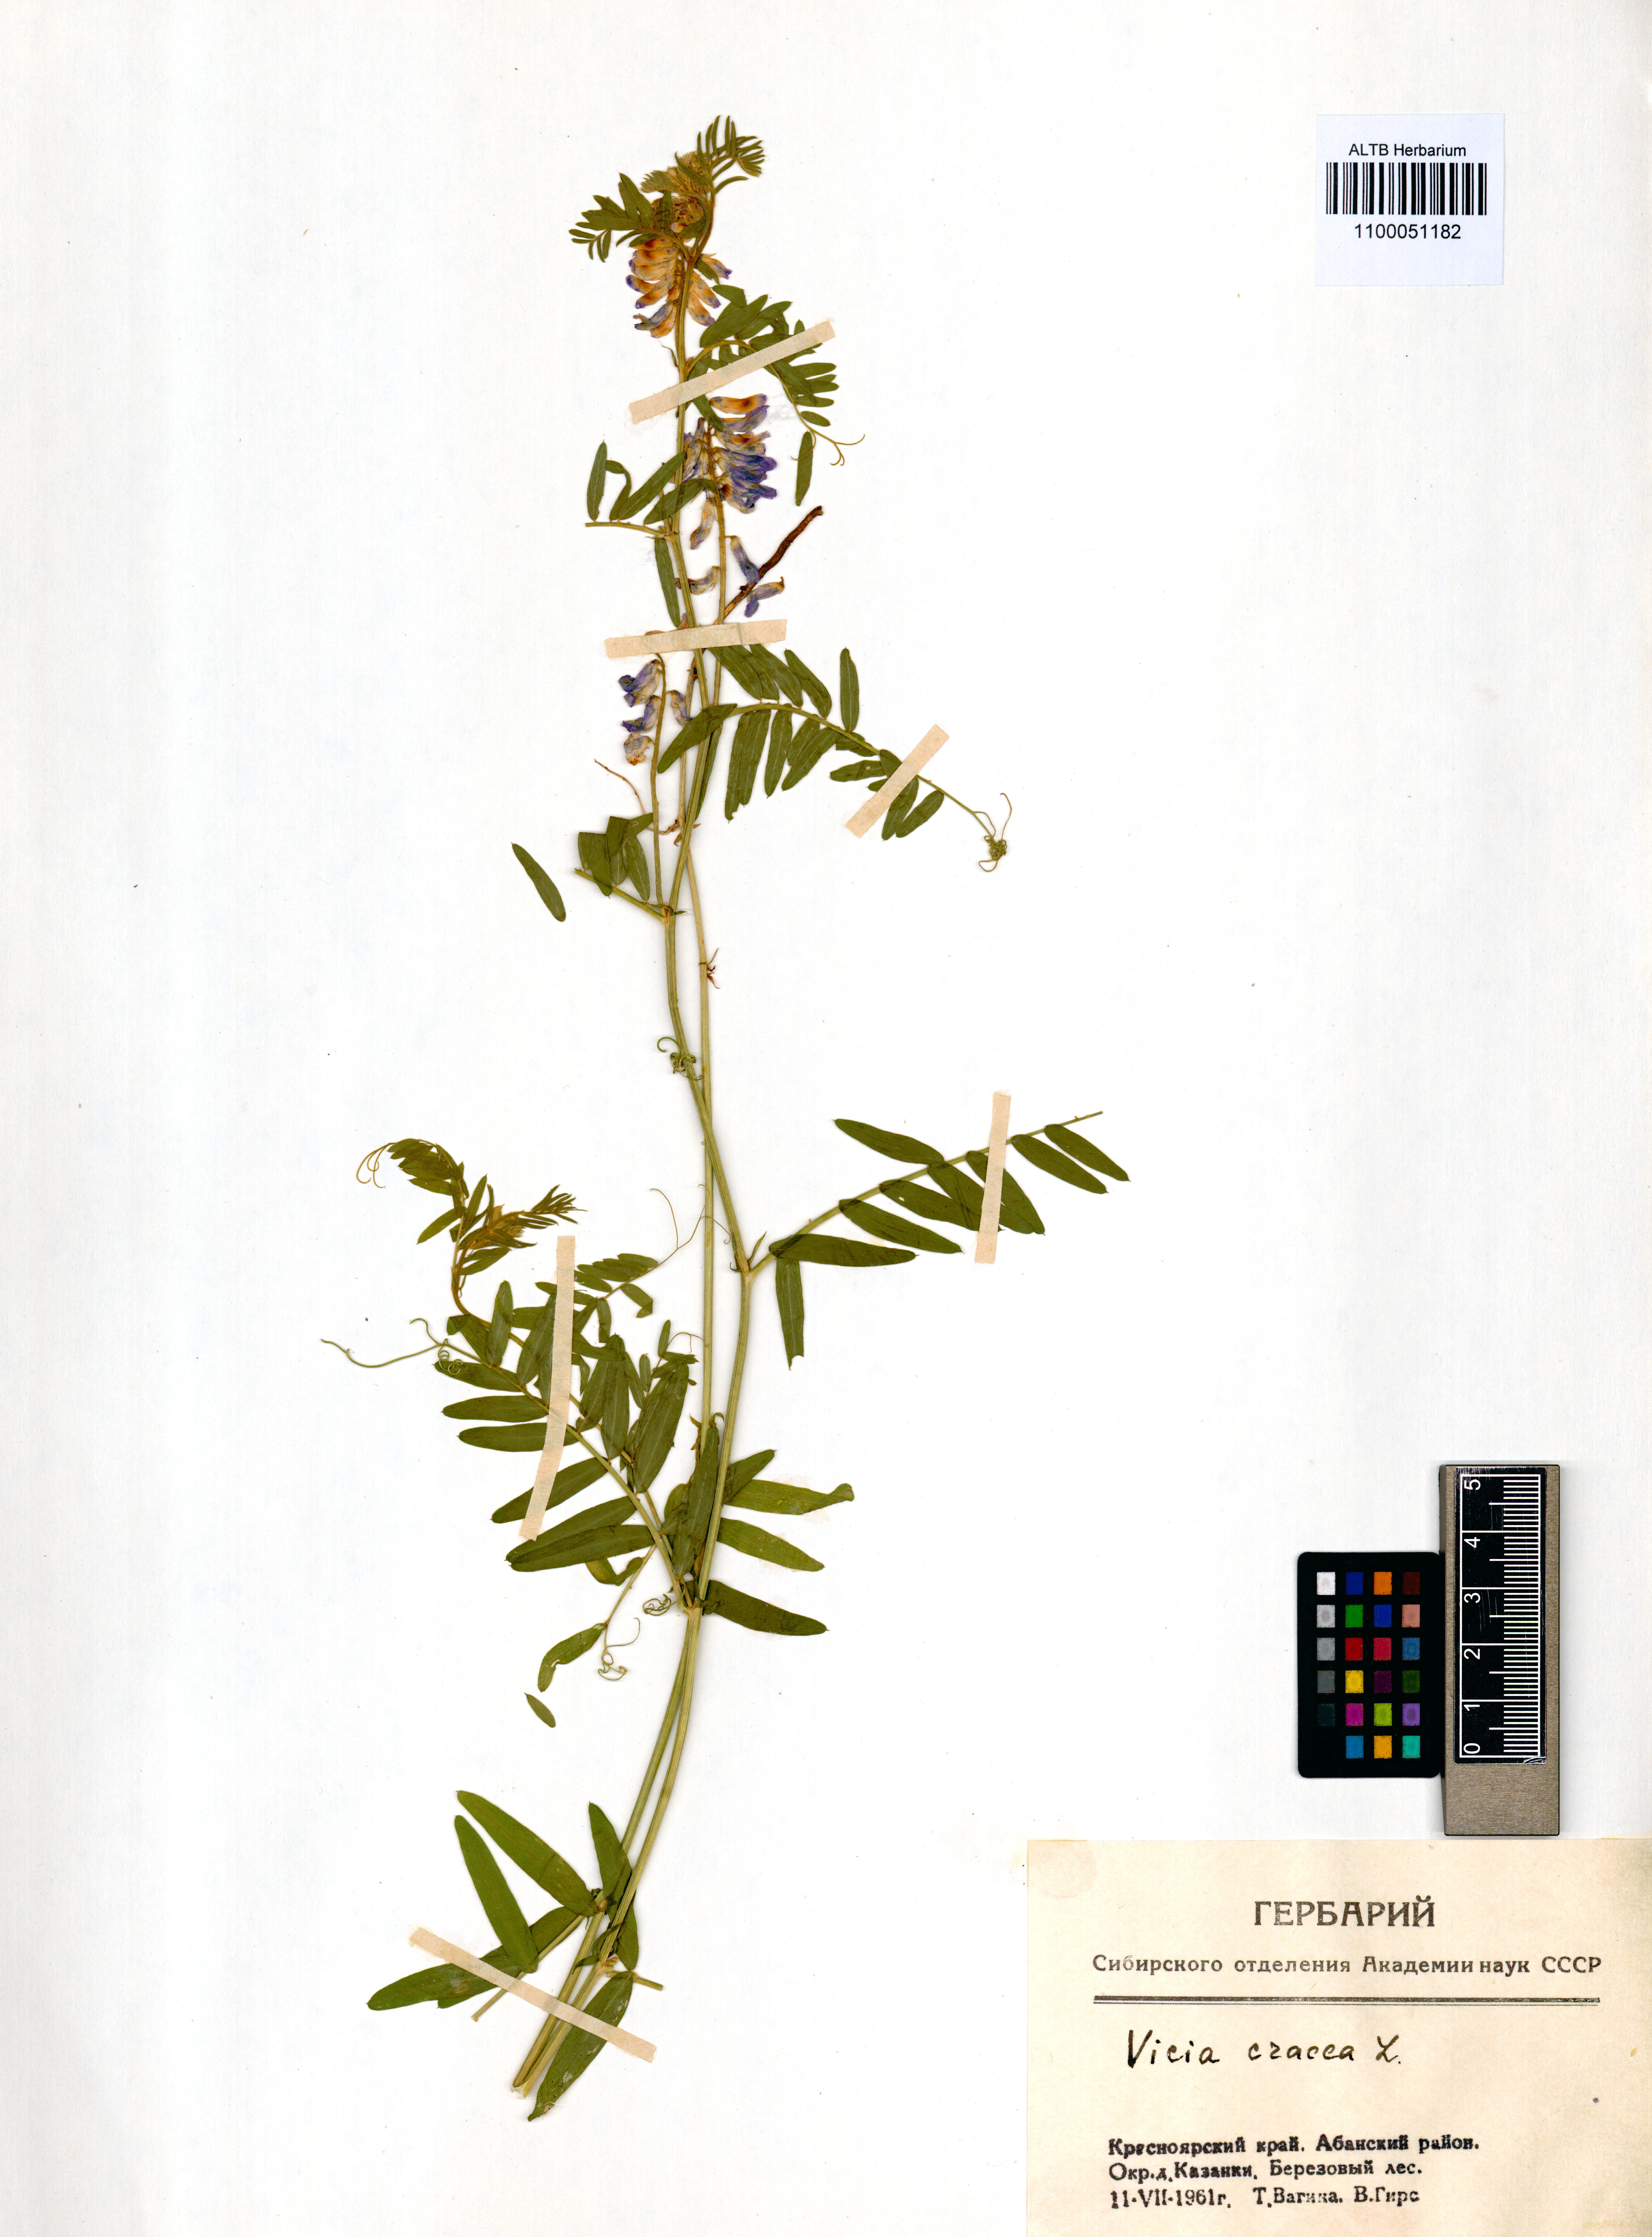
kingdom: Plantae
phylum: Tracheophyta
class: Magnoliopsida
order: Fabales
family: Fabaceae
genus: Vicia
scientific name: Vicia cracca
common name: Bird vetch
